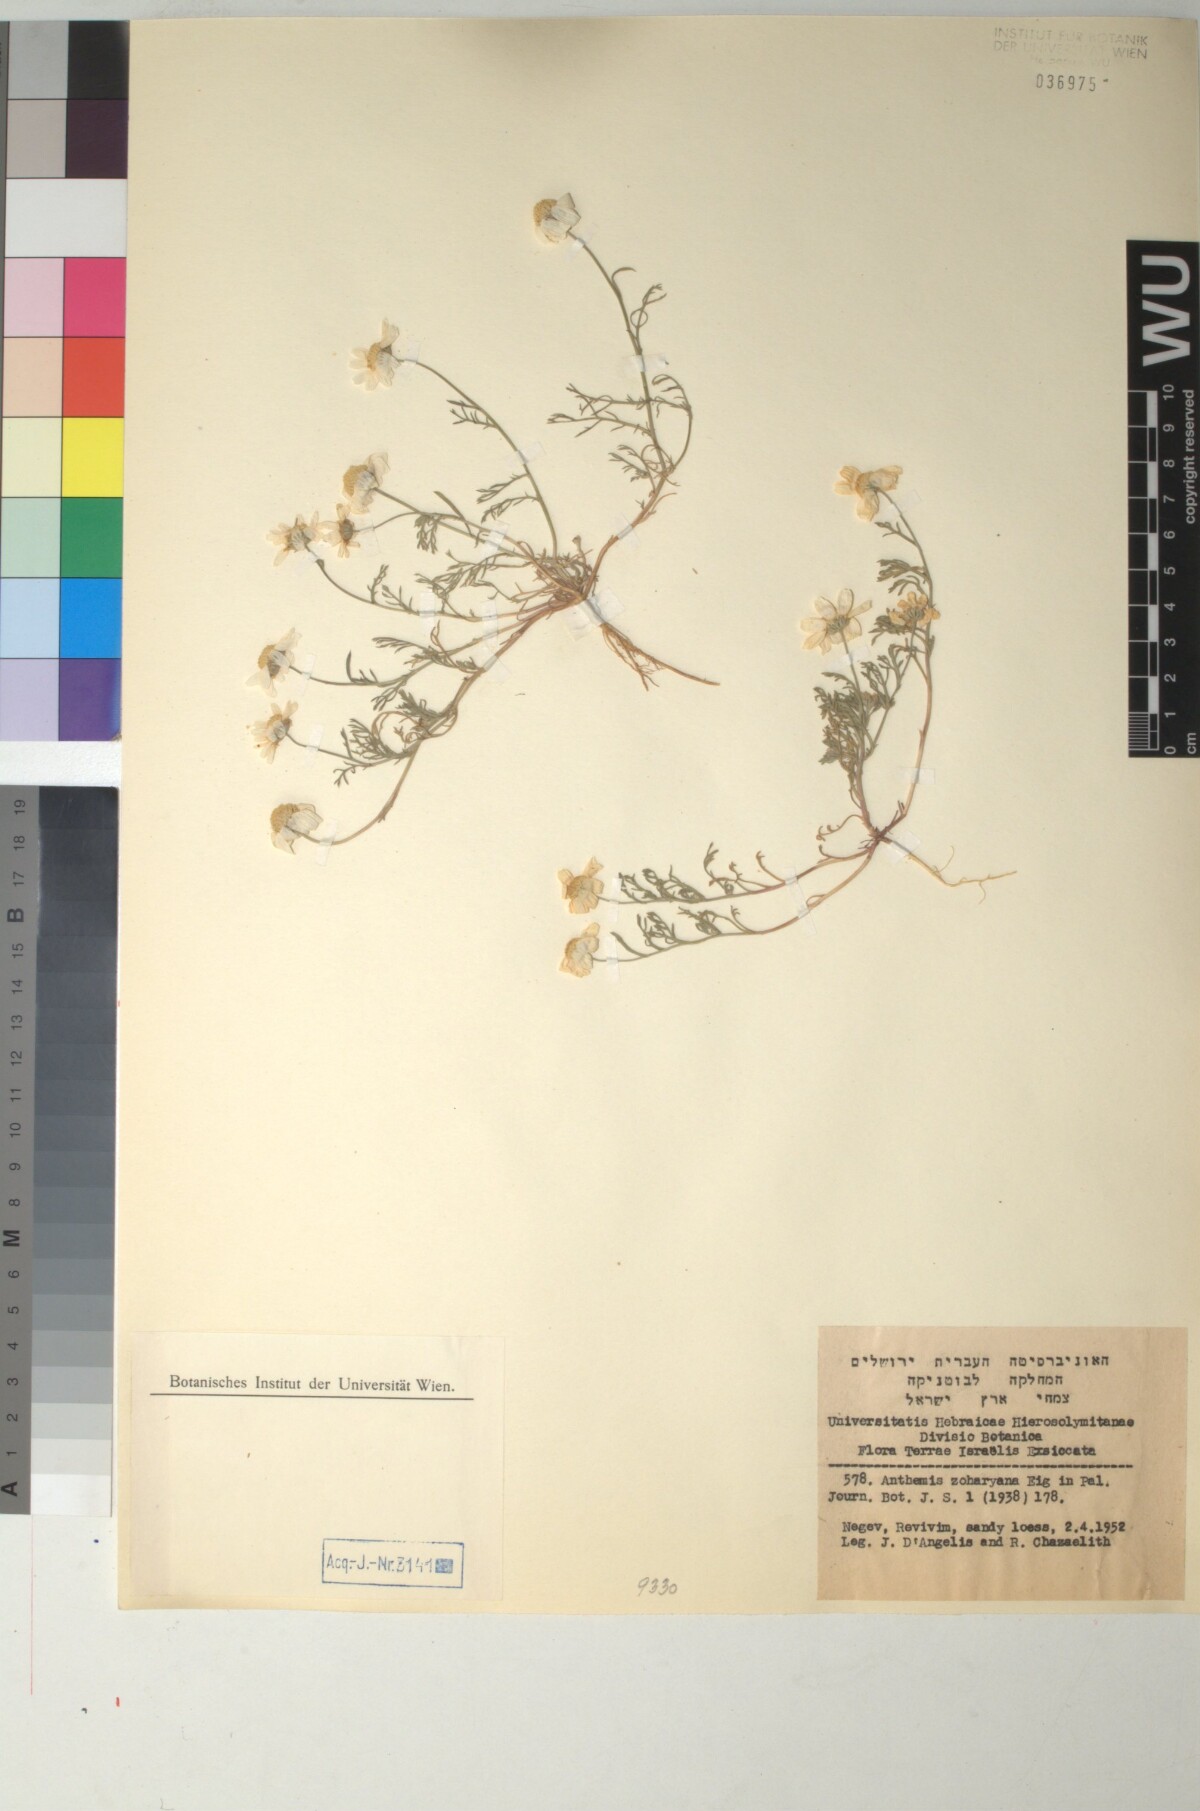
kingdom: Plantae
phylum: Tracheophyta
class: Magnoliopsida
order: Asterales
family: Asteraceae
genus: Anthemis
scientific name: Anthemis zoharyana
